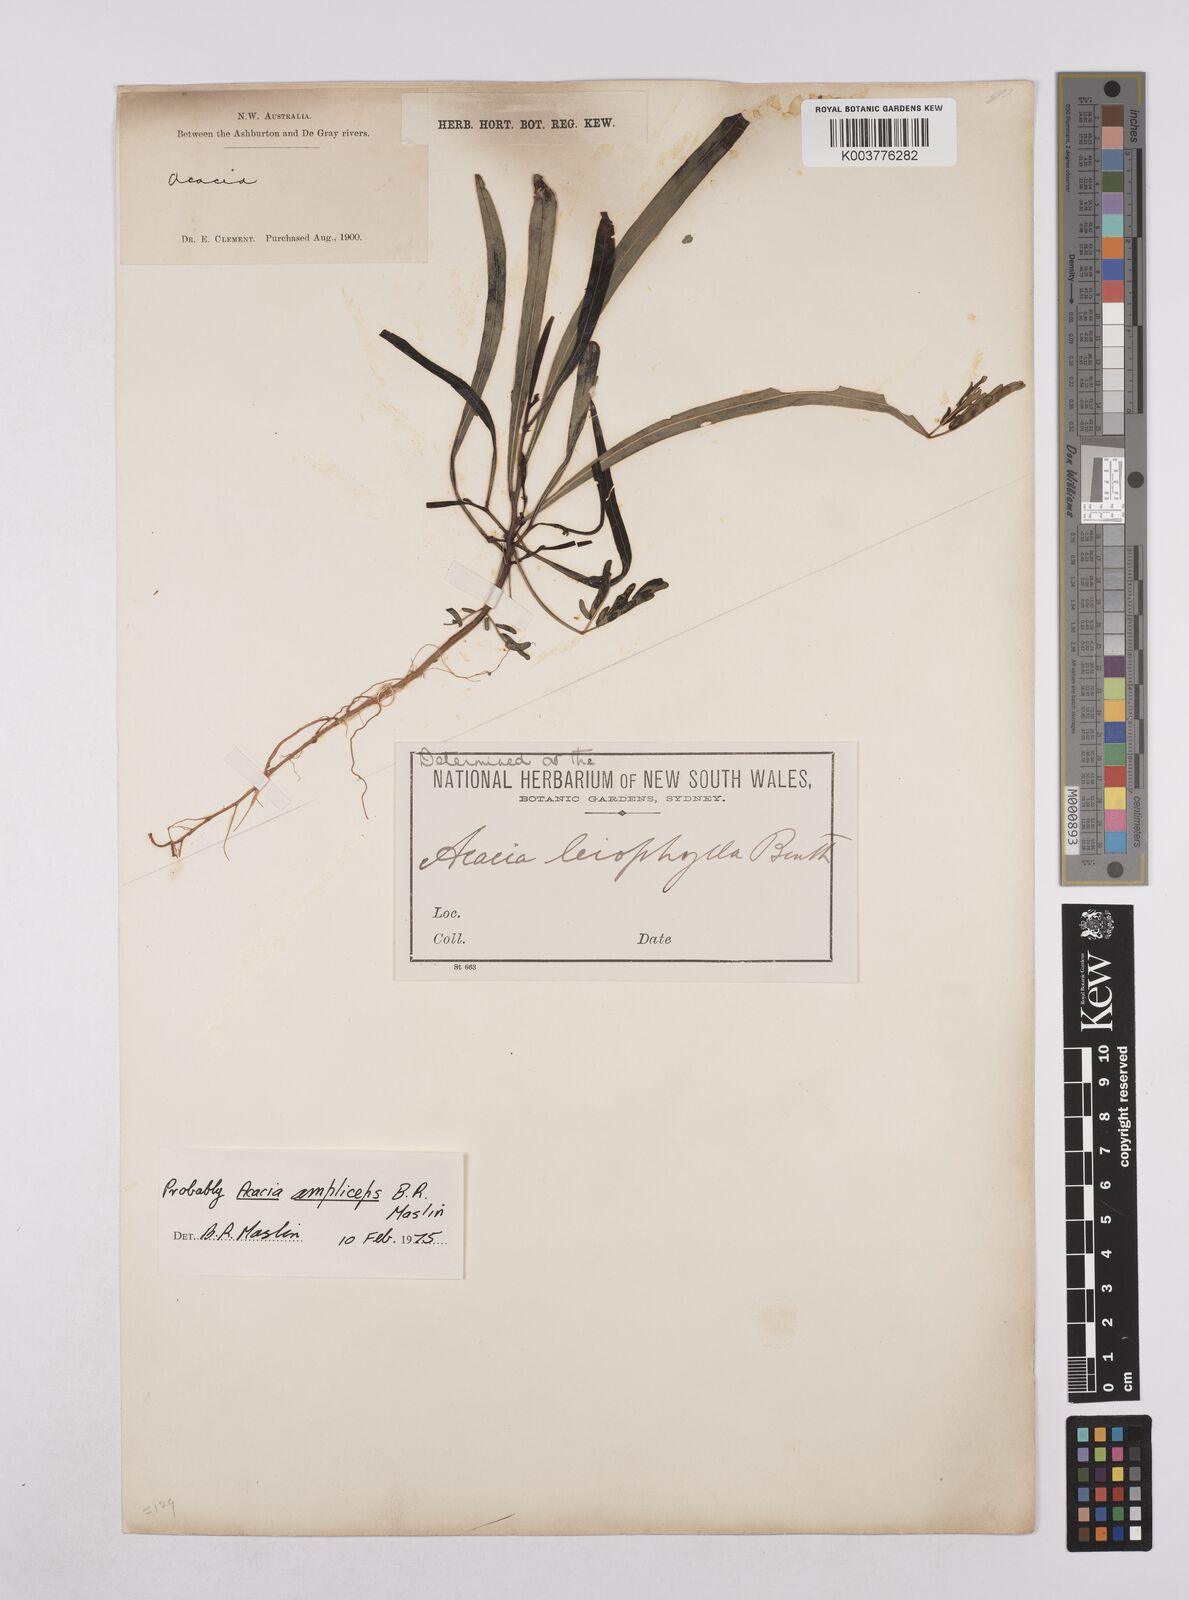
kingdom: Plantae
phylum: Tracheophyta
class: Magnoliopsida
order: Fabales
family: Fabaceae
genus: Acacia
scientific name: Acacia saligna
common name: Orange wattle
